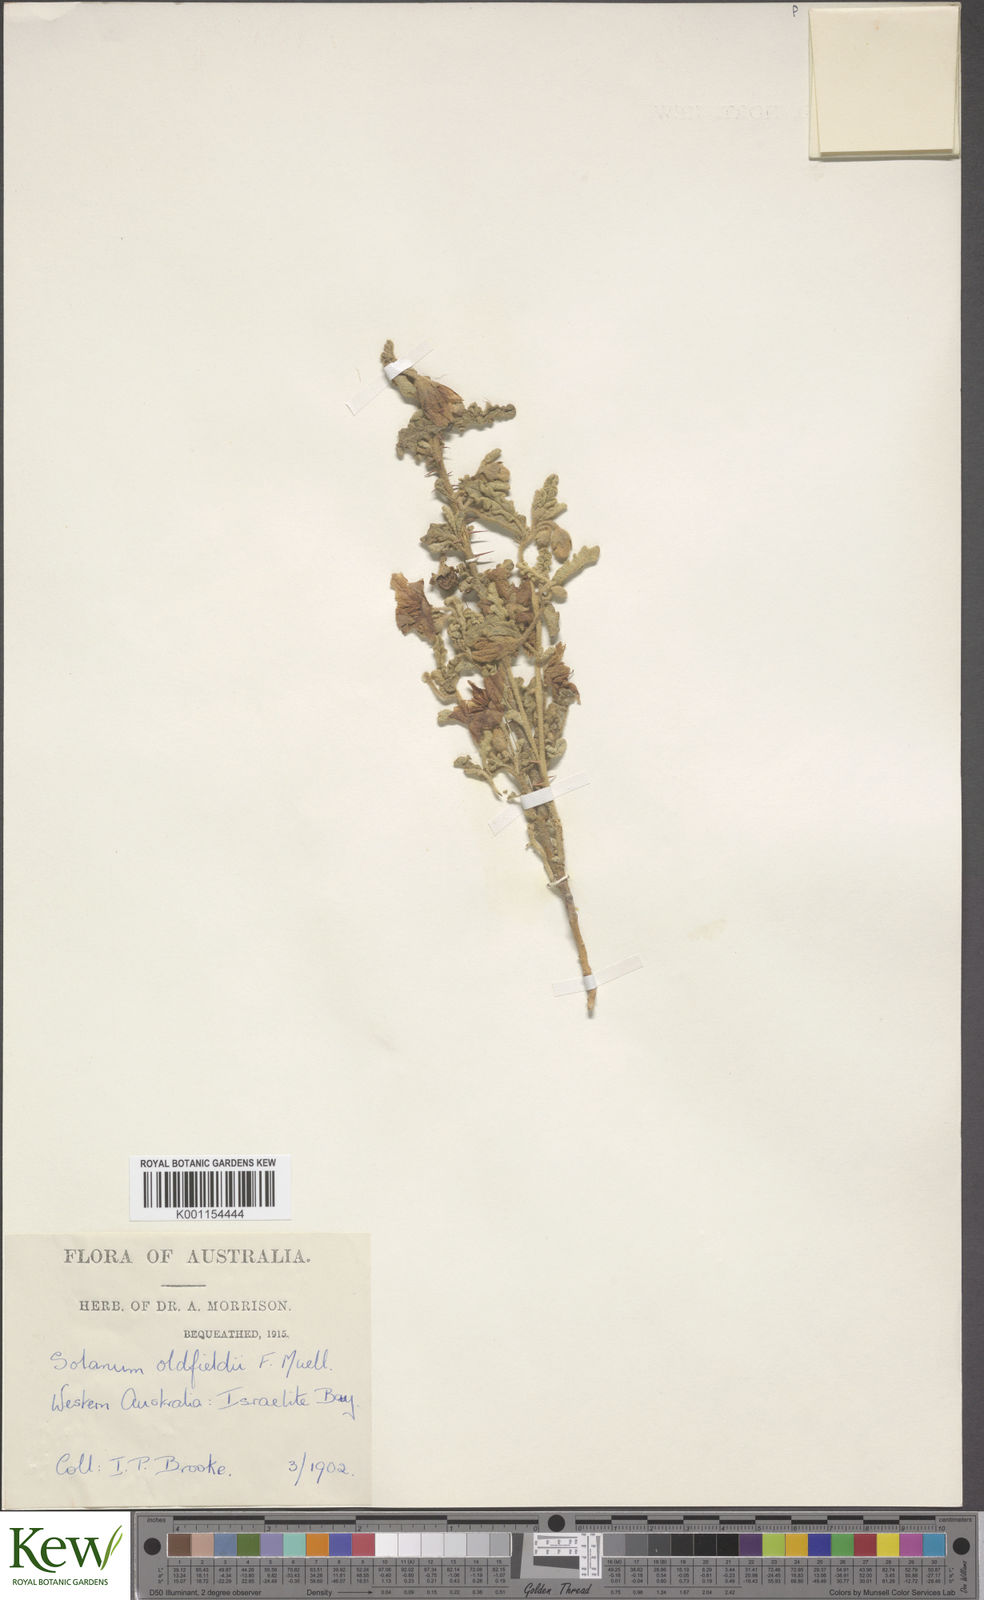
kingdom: Plantae
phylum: Tracheophyta
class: Magnoliopsida
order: Solanales
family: Solanaceae
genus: Solanum
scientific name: Solanum plicatile
